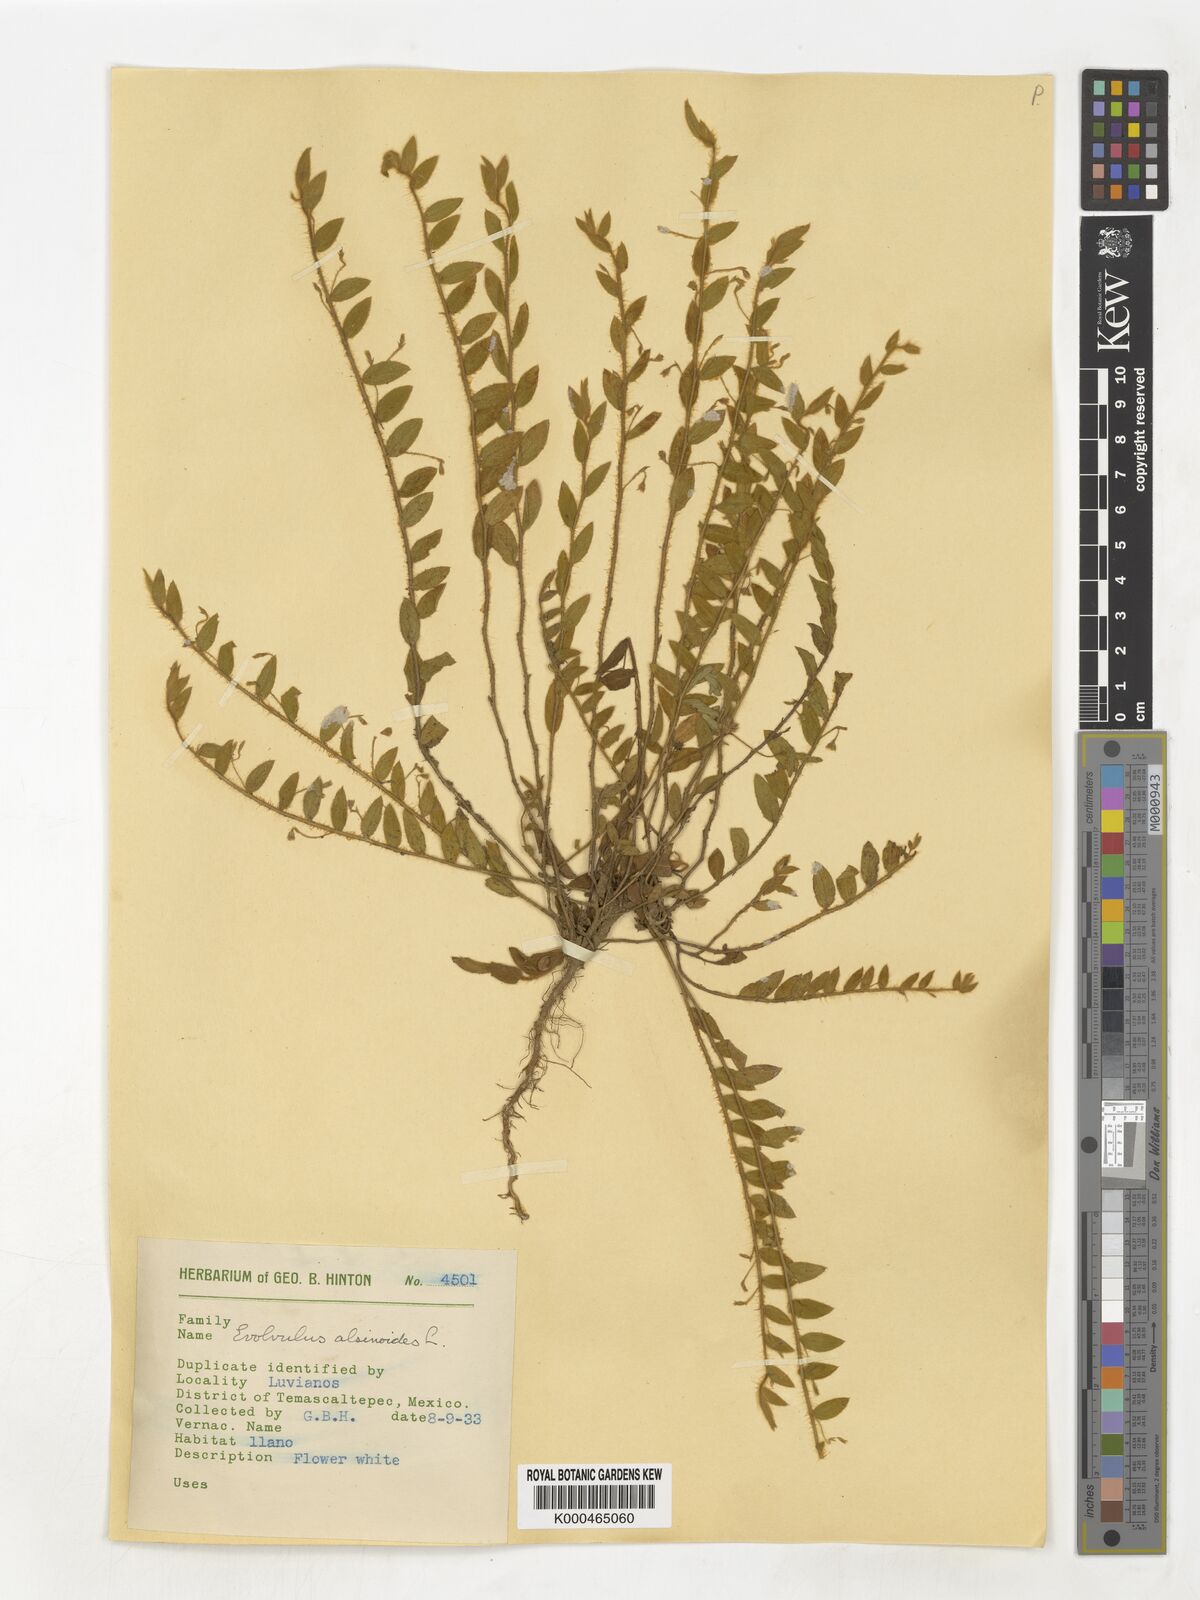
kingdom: Plantae
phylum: Tracheophyta
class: Magnoliopsida
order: Solanales
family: Convolvulaceae
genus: Evolvulus
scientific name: Evolvulus alsinoides
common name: Slender dwarf morning-glory
